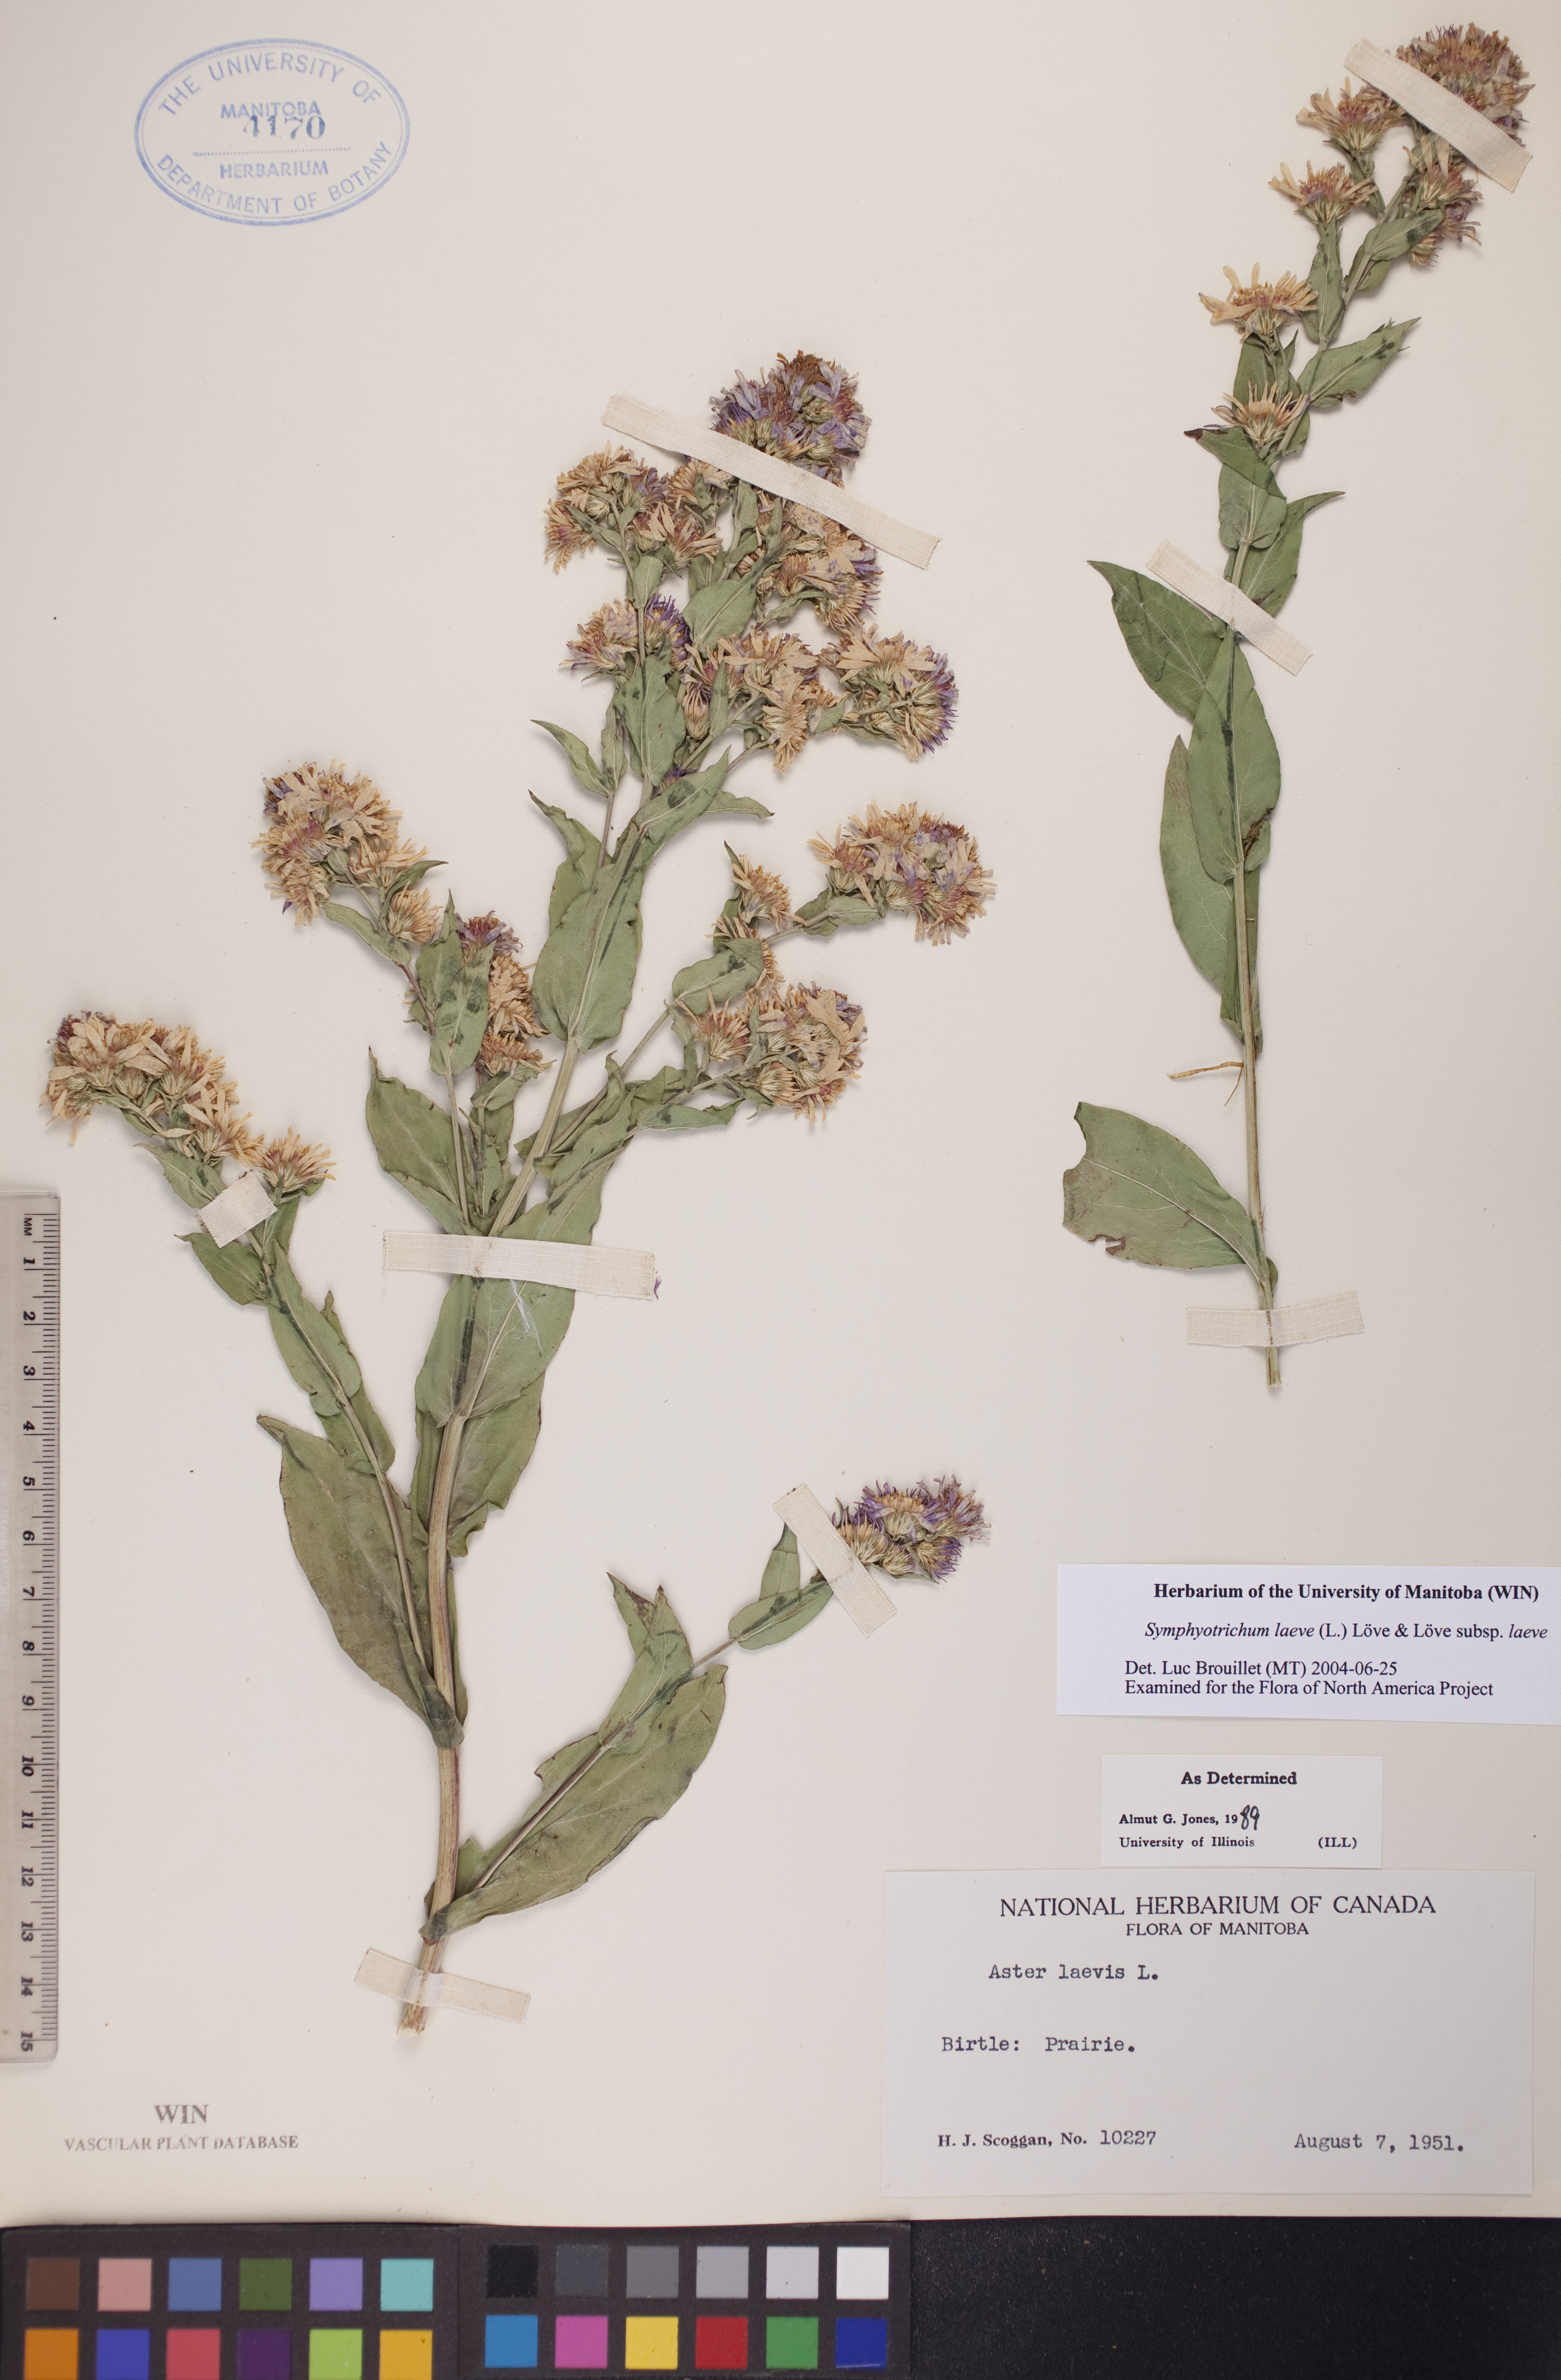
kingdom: Plantae
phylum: Tracheophyta
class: Magnoliopsida
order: Asterales
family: Asteraceae
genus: Symphyotrichum
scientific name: Symphyotrichum laeve
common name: Glaucous aster
